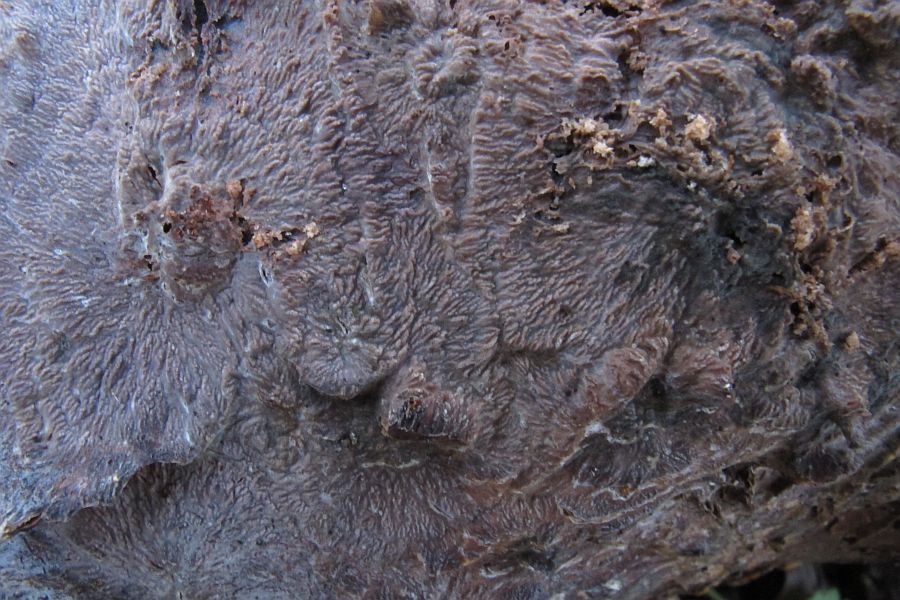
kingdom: Fungi
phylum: Basidiomycota
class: Agaricomycetes
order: Polyporales
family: Meruliaceae
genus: Phlebia
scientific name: Phlebia radiata
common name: stråle-åresvamp
